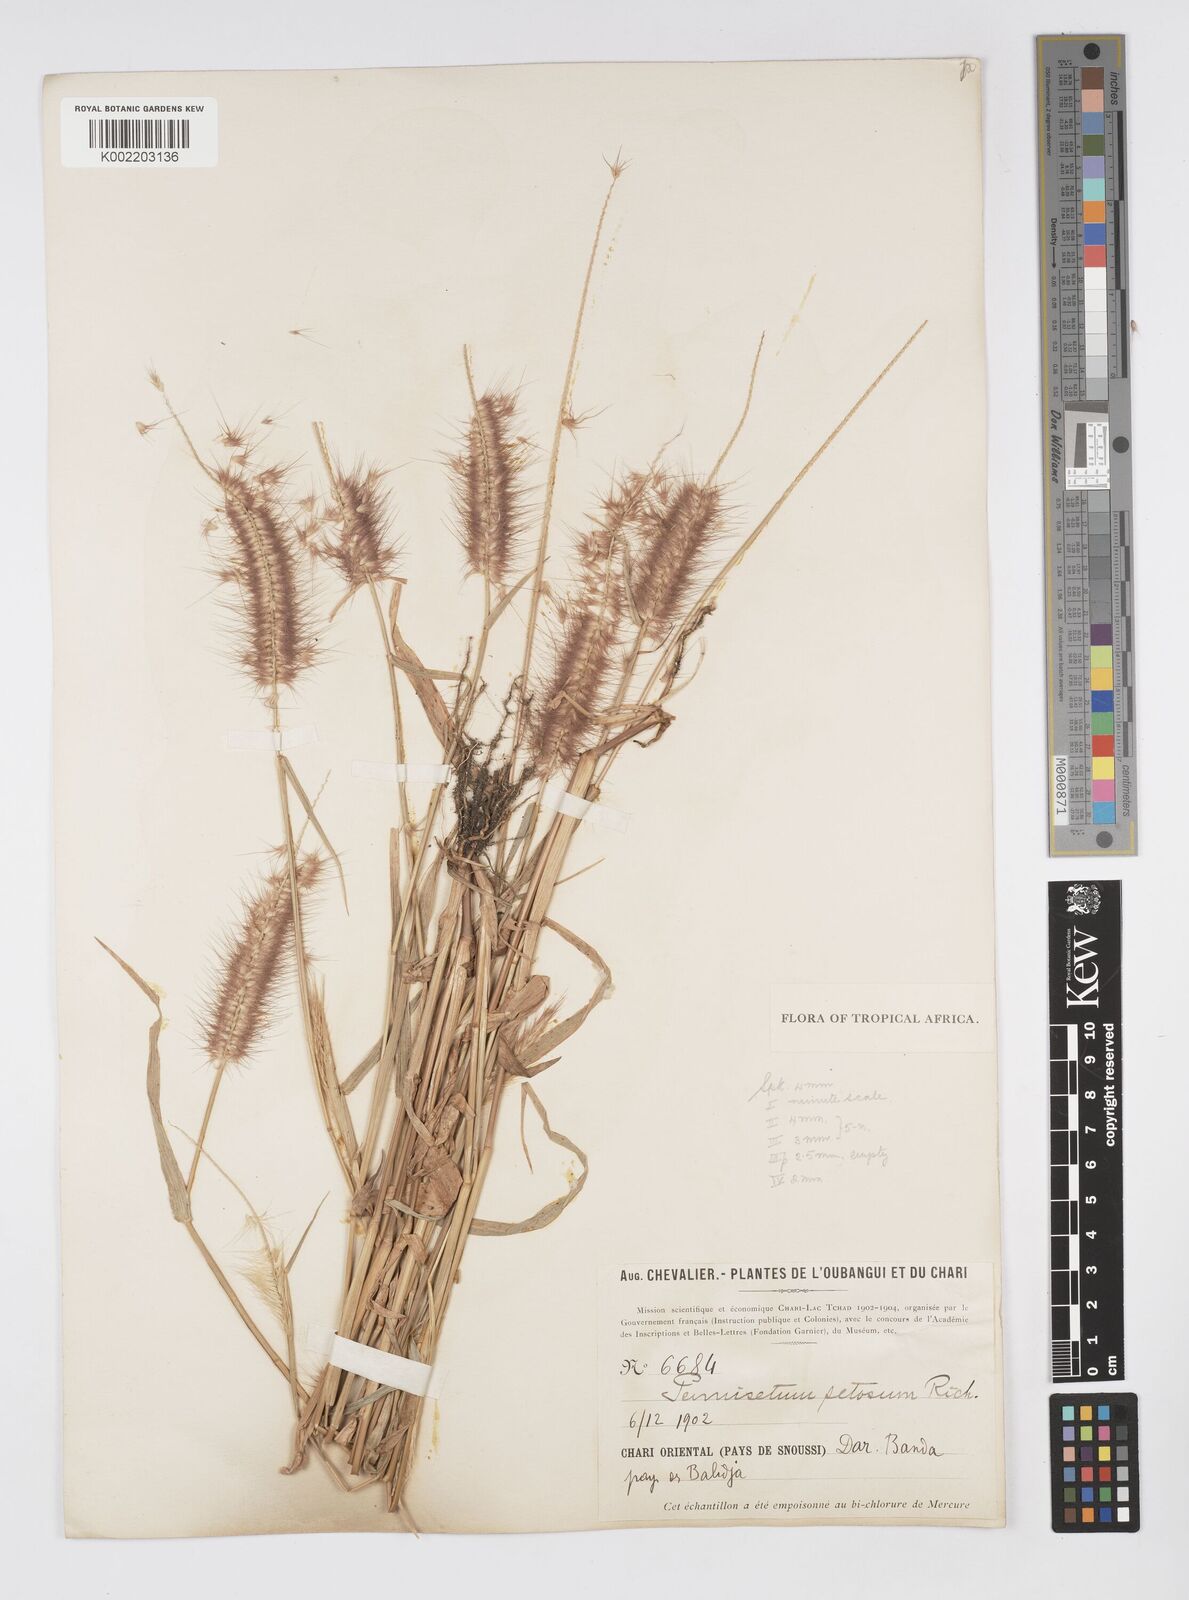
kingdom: Plantae
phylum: Tracheophyta
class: Liliopsida
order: Poales
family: Poaceae
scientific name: Poaceae
